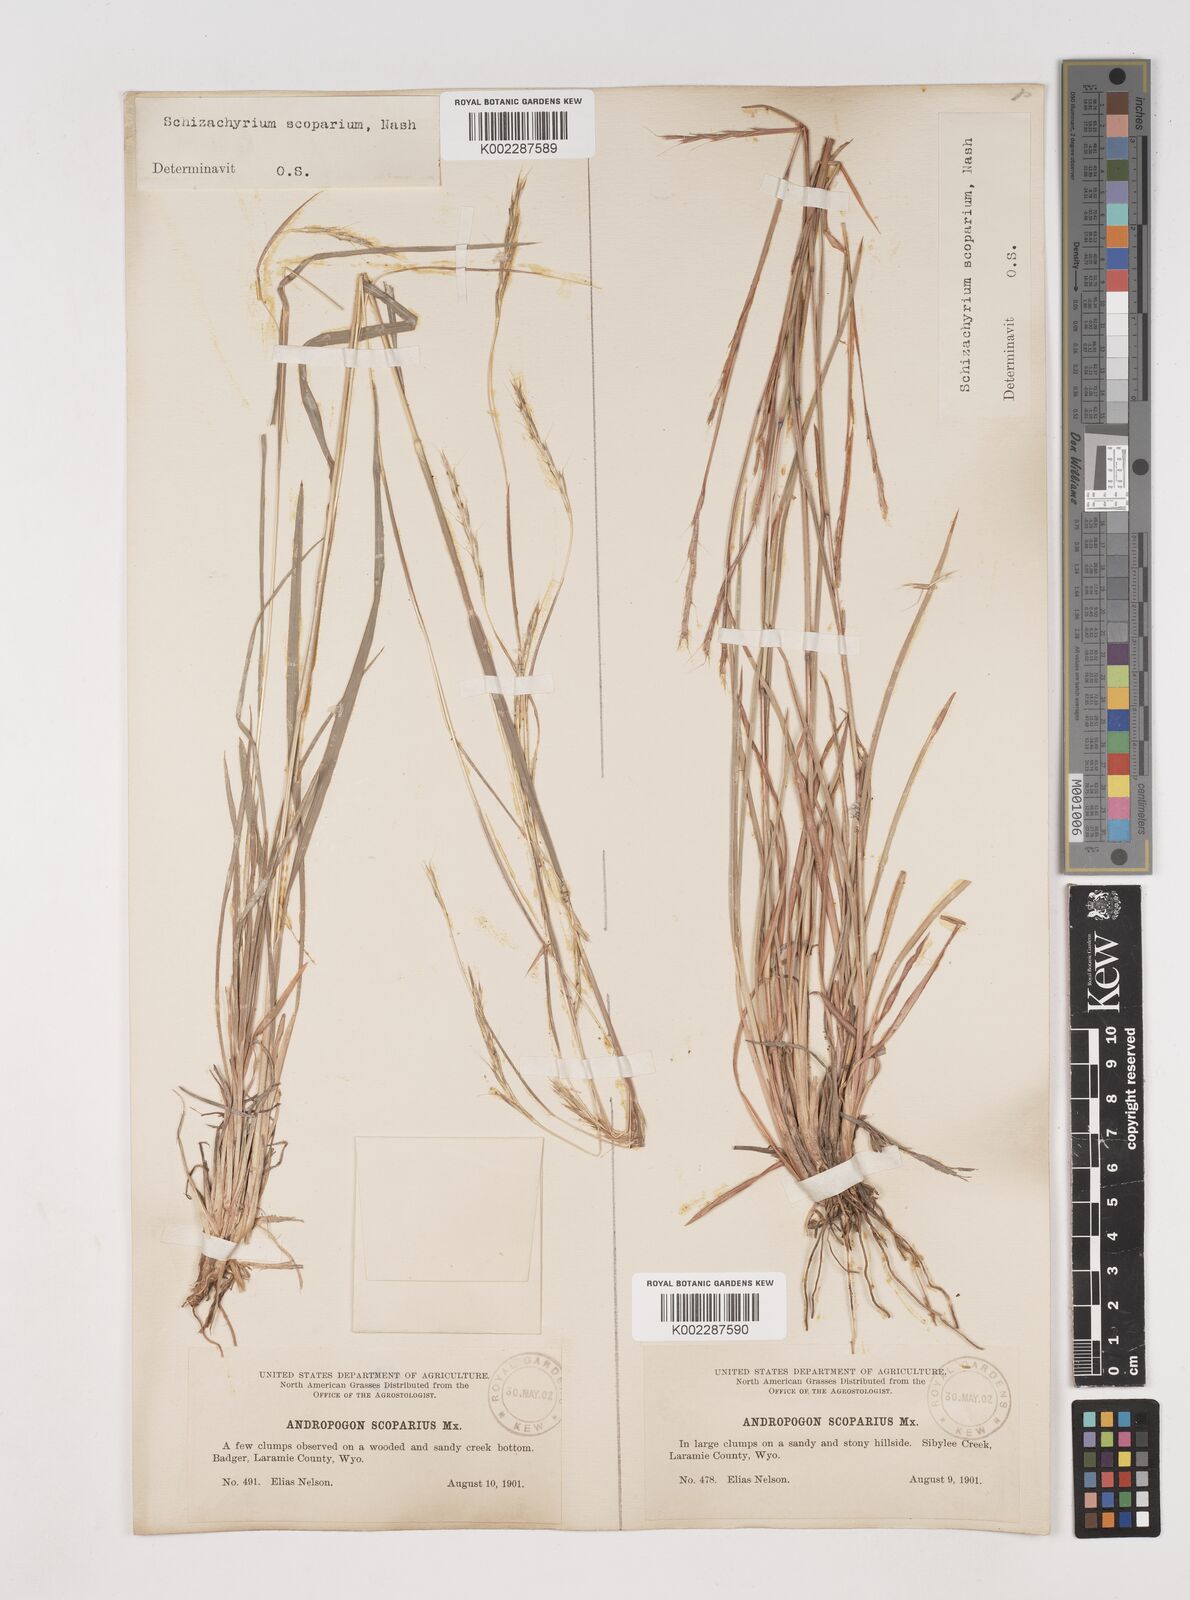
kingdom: Plantae
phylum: Tracheophyta
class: Liliopsida
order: Poales
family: Poaceae
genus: Schizachyrium
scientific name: Schizachyrium scoparium
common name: Little bluestem
